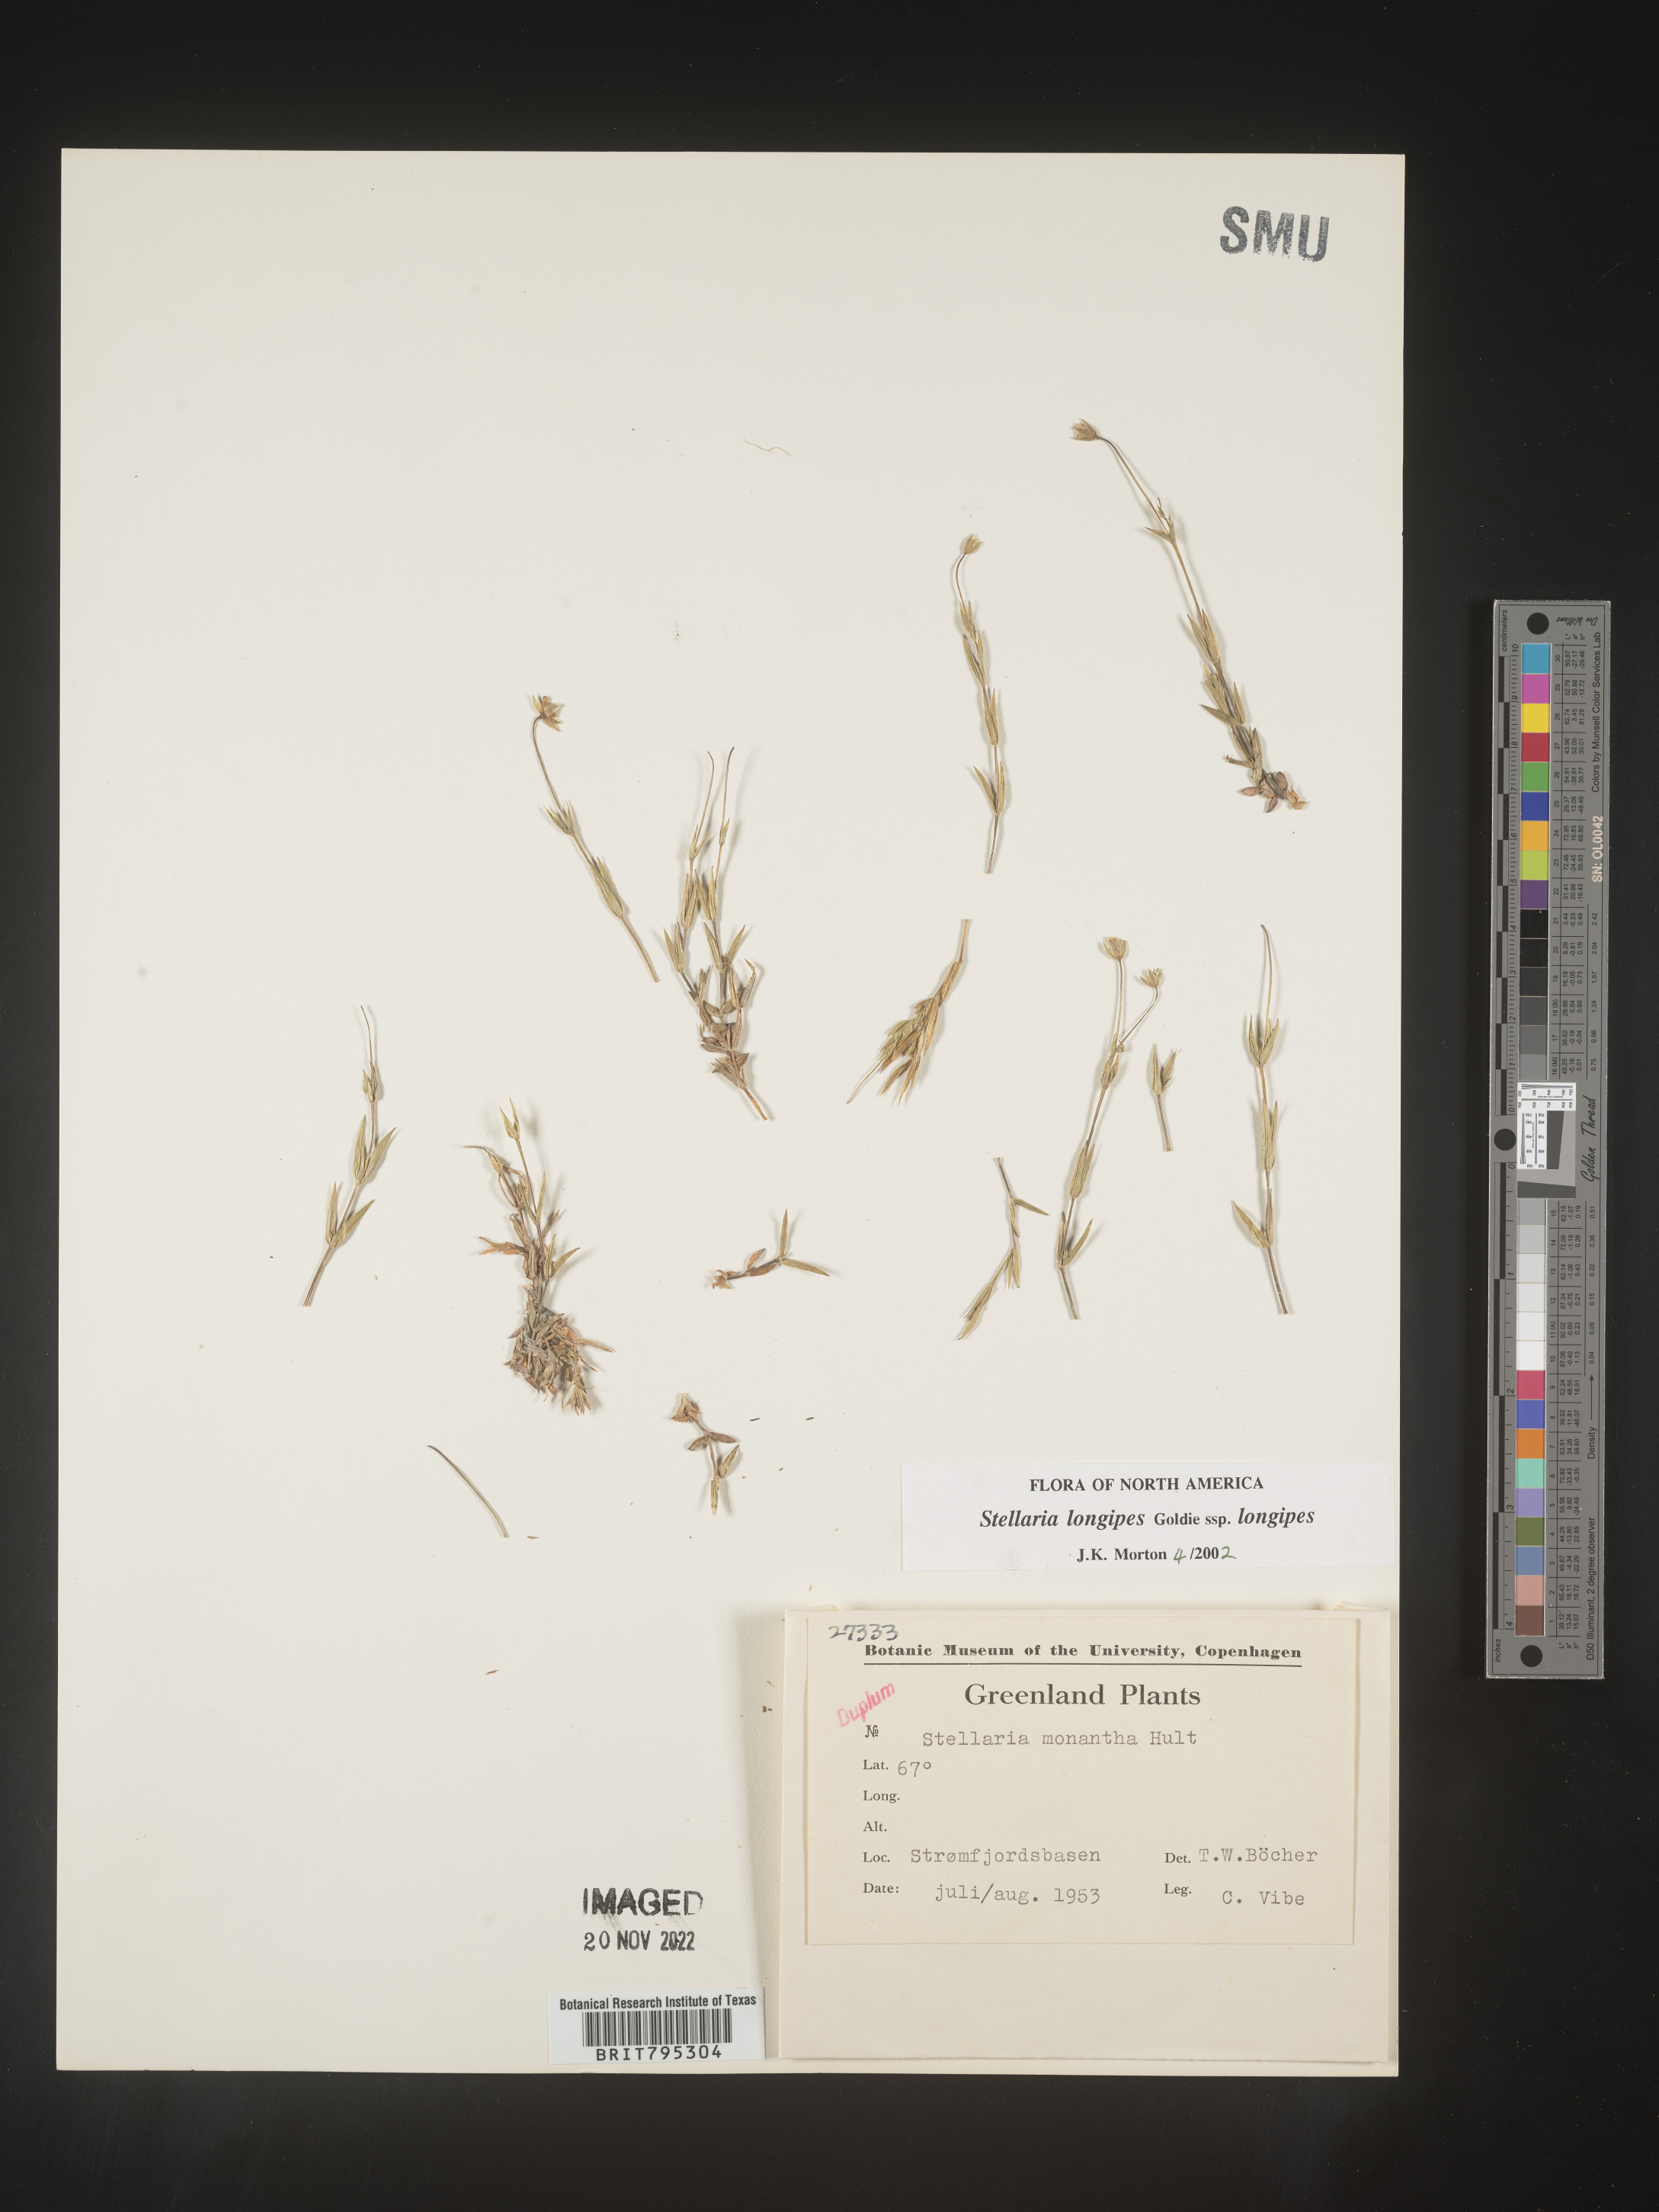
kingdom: Plantae
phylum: Tracheophyta
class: Magnoliopsida
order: Caryophyllales
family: Caryophyllaceae
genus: Stellaria
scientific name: Stellaria
